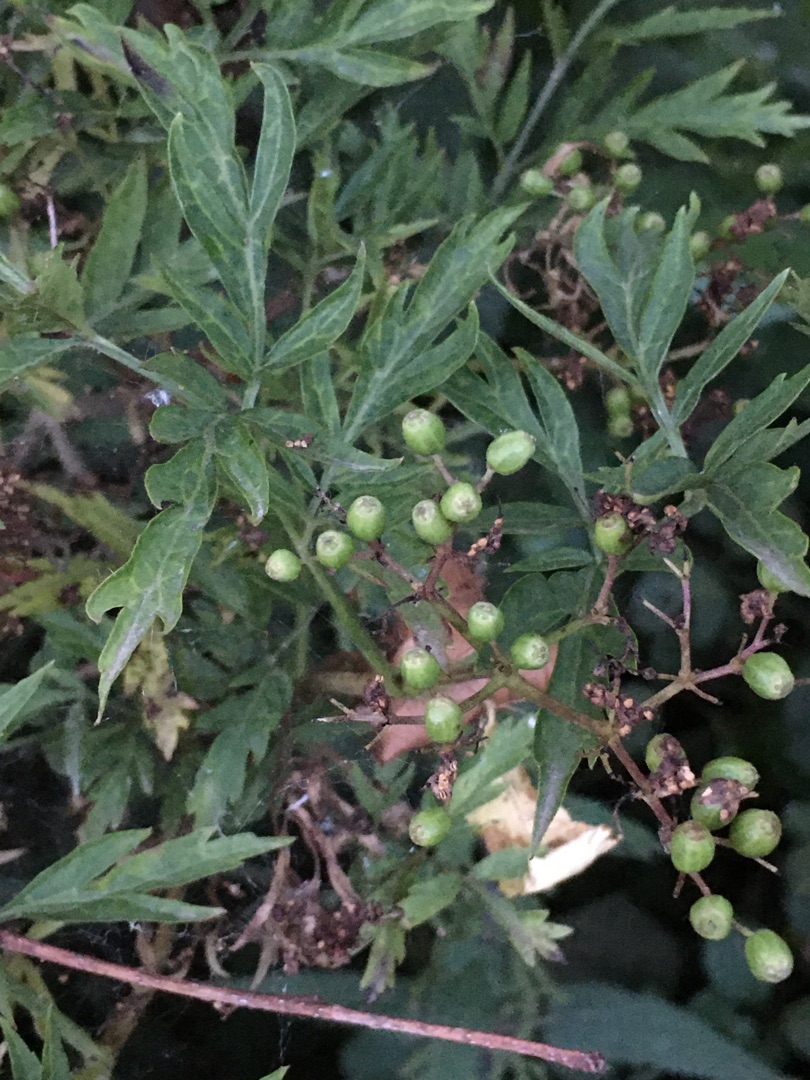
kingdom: Plantae
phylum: Tracheophyta
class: Magnoliopsida
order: Dipsacales
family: Viburnaceae
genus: Sambucus
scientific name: Sambucus nigra
